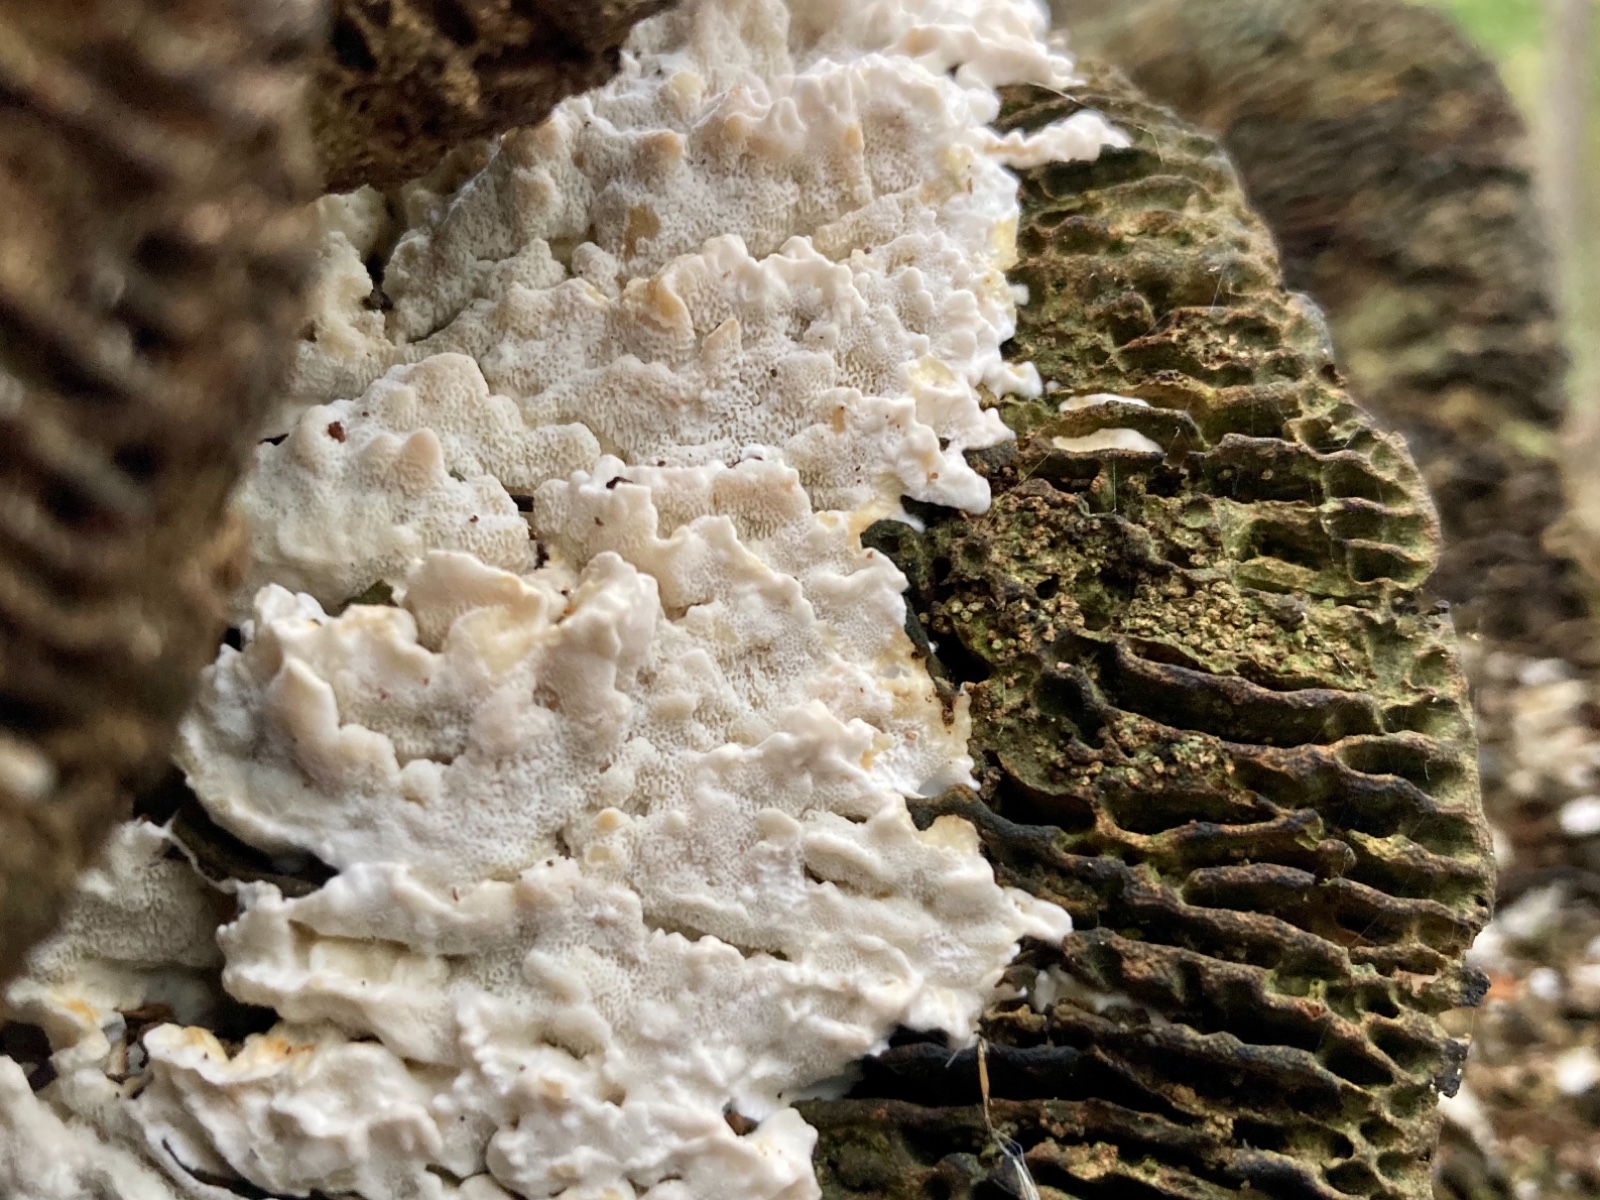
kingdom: Fungi
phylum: Basidiomycota
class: Agaricomycetes
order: Polyporales
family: Dacryobolaceae
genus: Oligoporus
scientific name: Oligoporus wakefieldiae
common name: række-kødporesvamp
